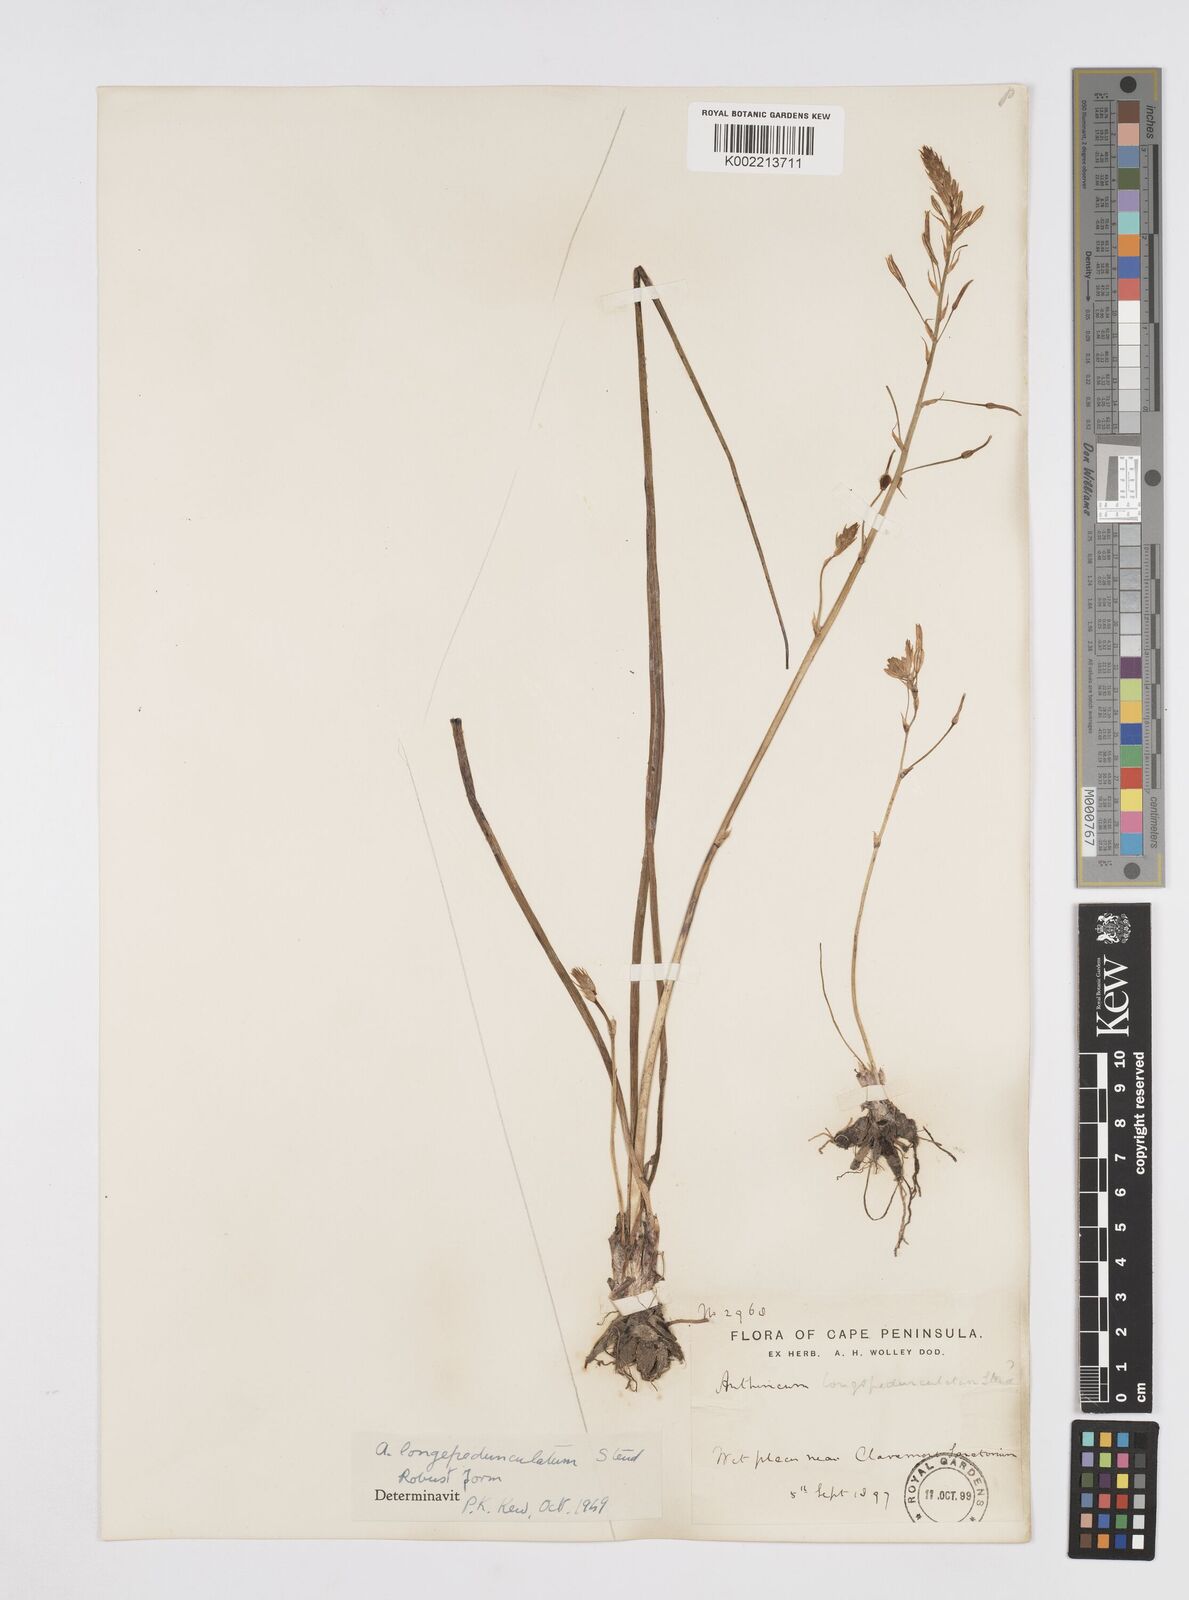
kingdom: Plantae
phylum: Tracheophyta
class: Liliopsida
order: Asparagales
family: Asphodelaceae
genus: Trachyandra
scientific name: Trachyandra filiformis
